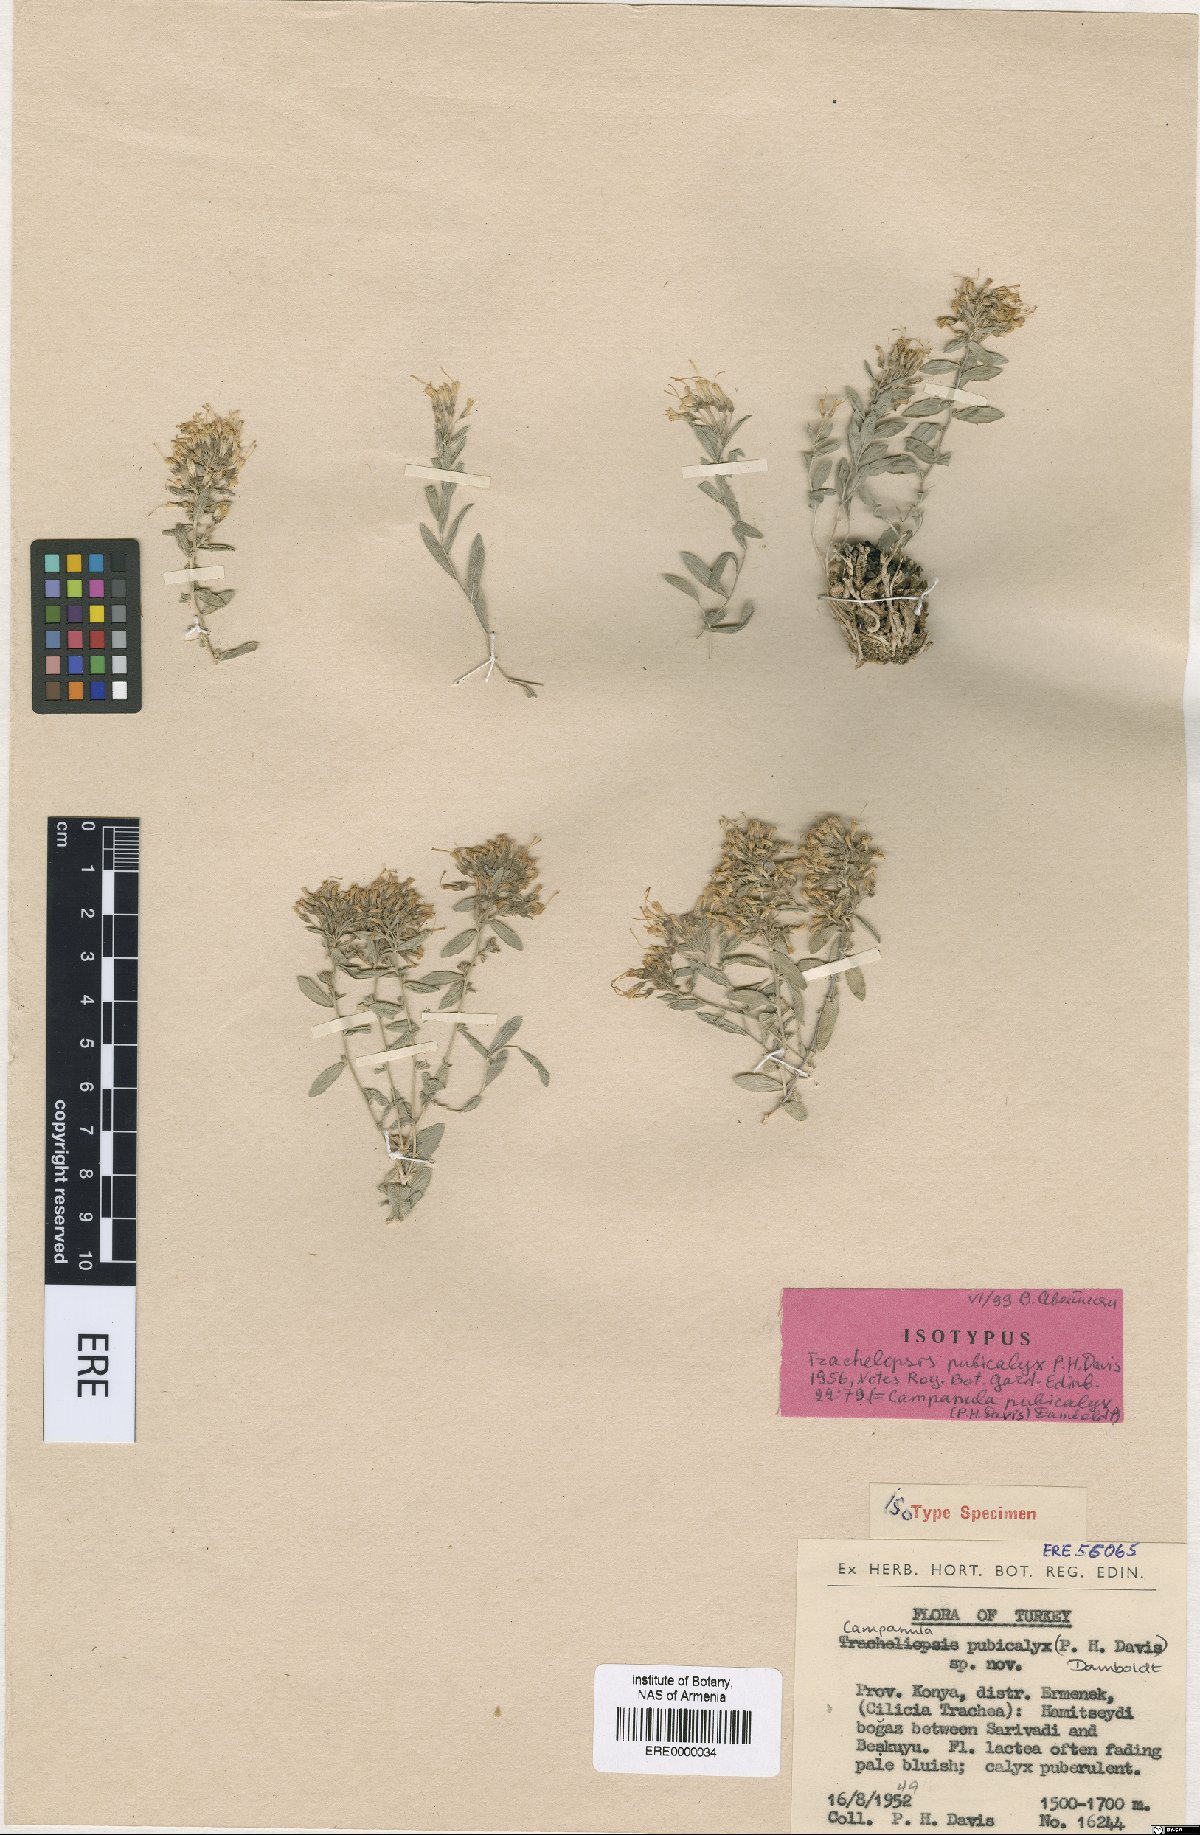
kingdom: Plantae
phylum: Tracheophyta
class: Magnoliopsida
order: Asterales
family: Campanulaceae
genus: Campanula
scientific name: Campanula pubicalyx
